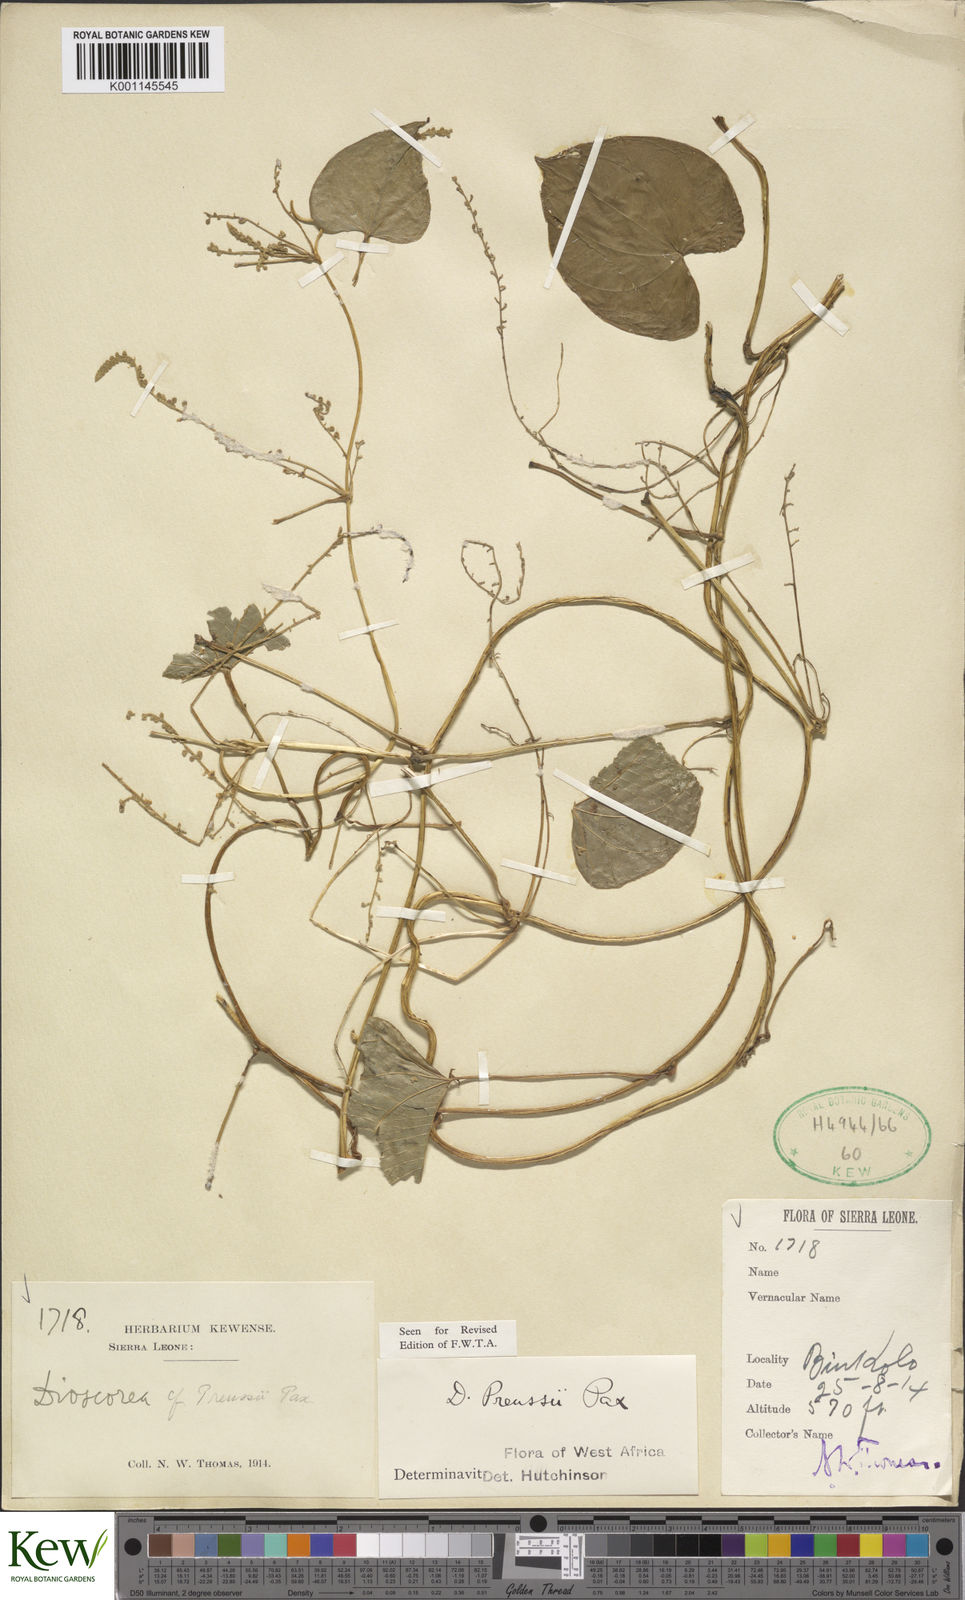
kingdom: Plantae
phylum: Tracheophyta
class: Liliopsida
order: Dioscoreales
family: Dioscoreaceae
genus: Dioscorea
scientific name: Dioscorea preussii
